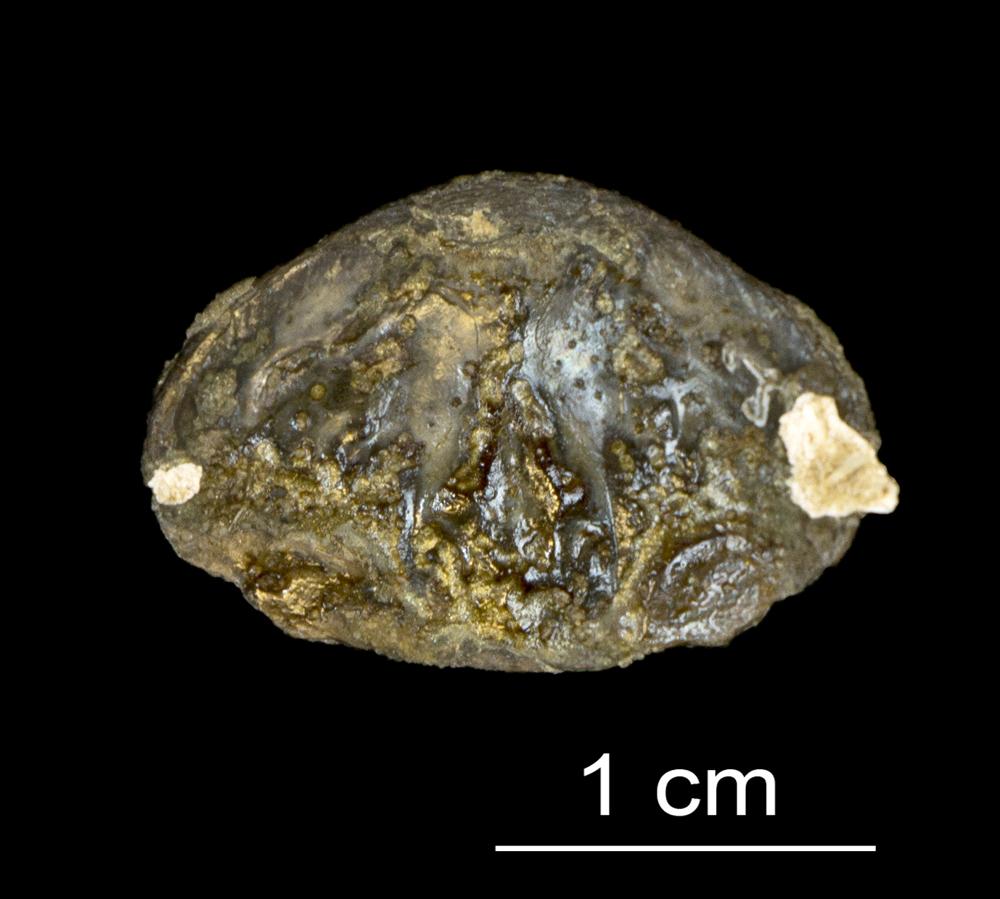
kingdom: Animalia
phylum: Brachiopoda
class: Lingulata
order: Lingulida
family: Obolidae
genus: Obolus
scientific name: Obolus apollinis
